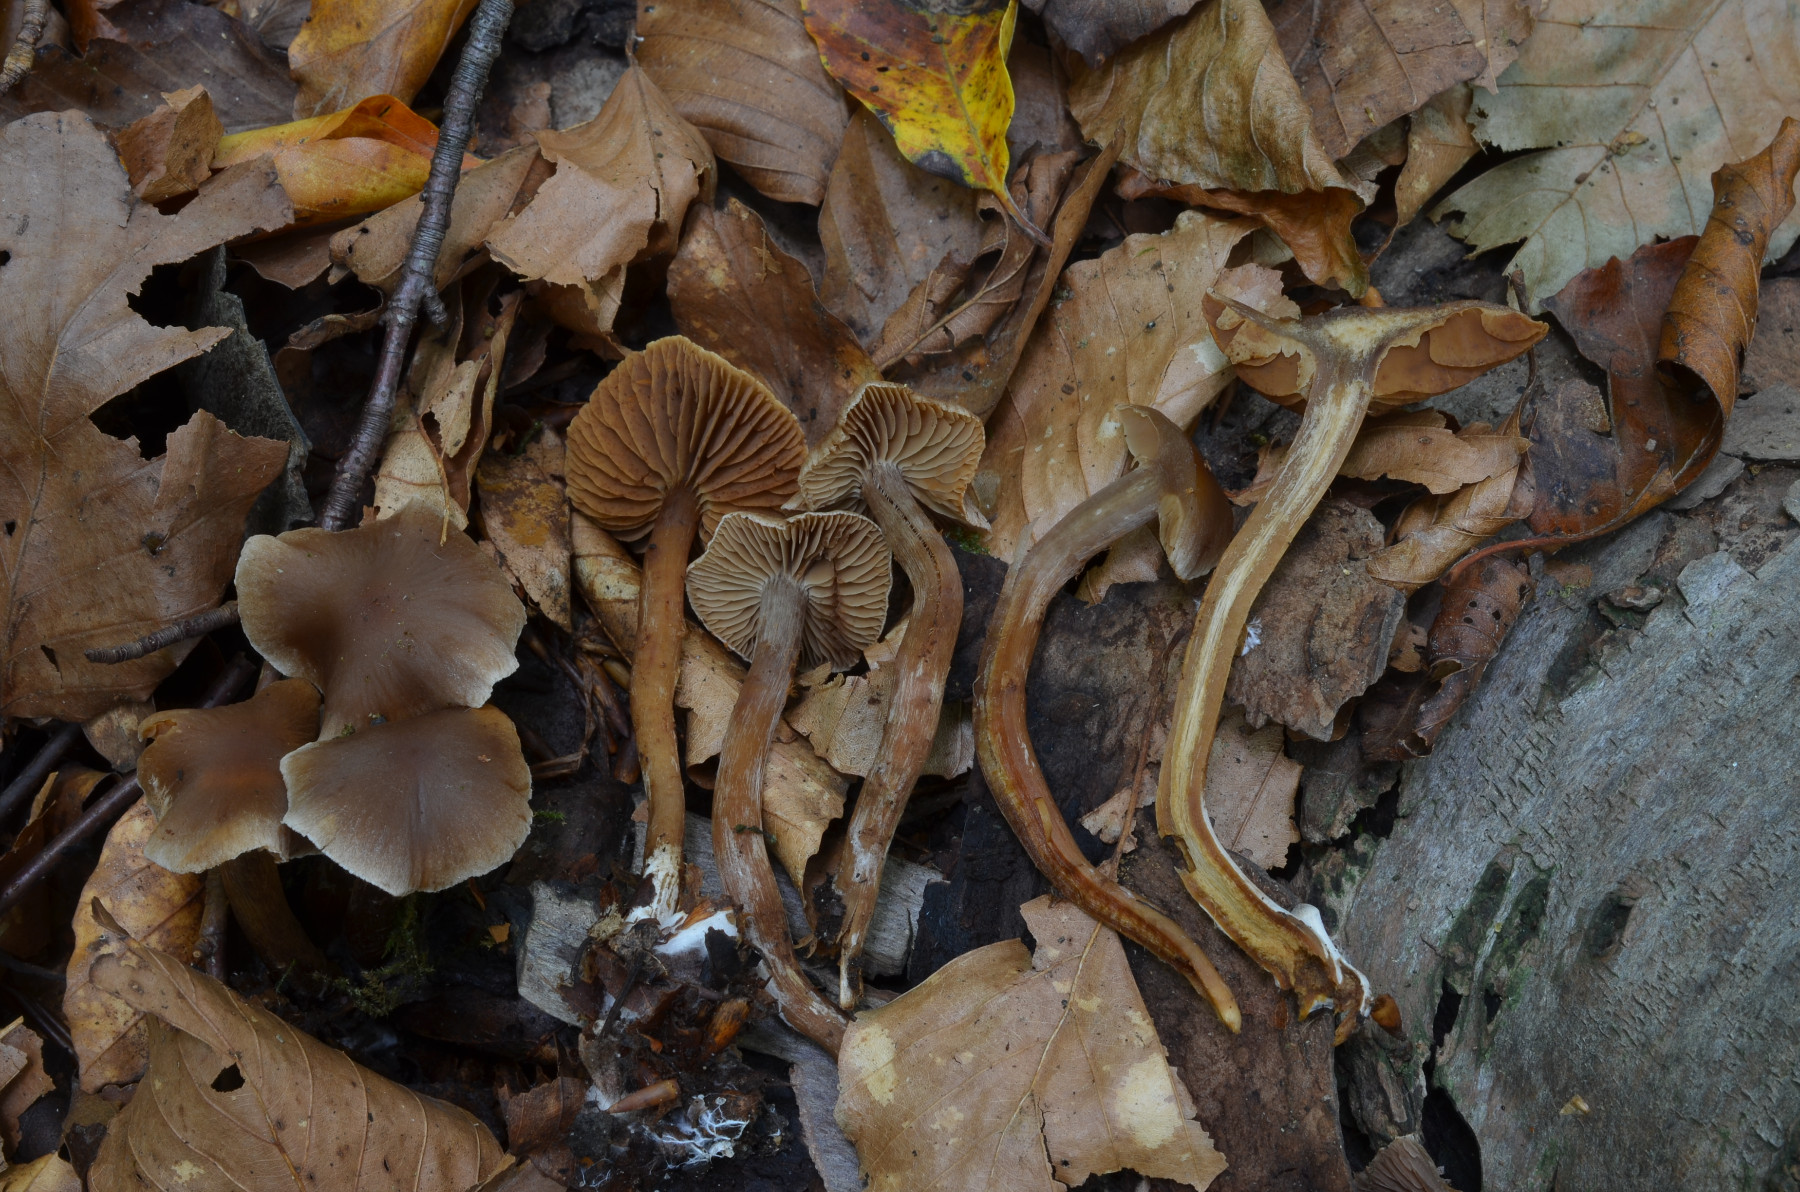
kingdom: Fungi
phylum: Basidiomycota
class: Agaricomycetes
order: Agaricales
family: Cortinariaceae
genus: Cortinarius
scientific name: Cortinarius elaphinicolor
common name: glat slørhat
